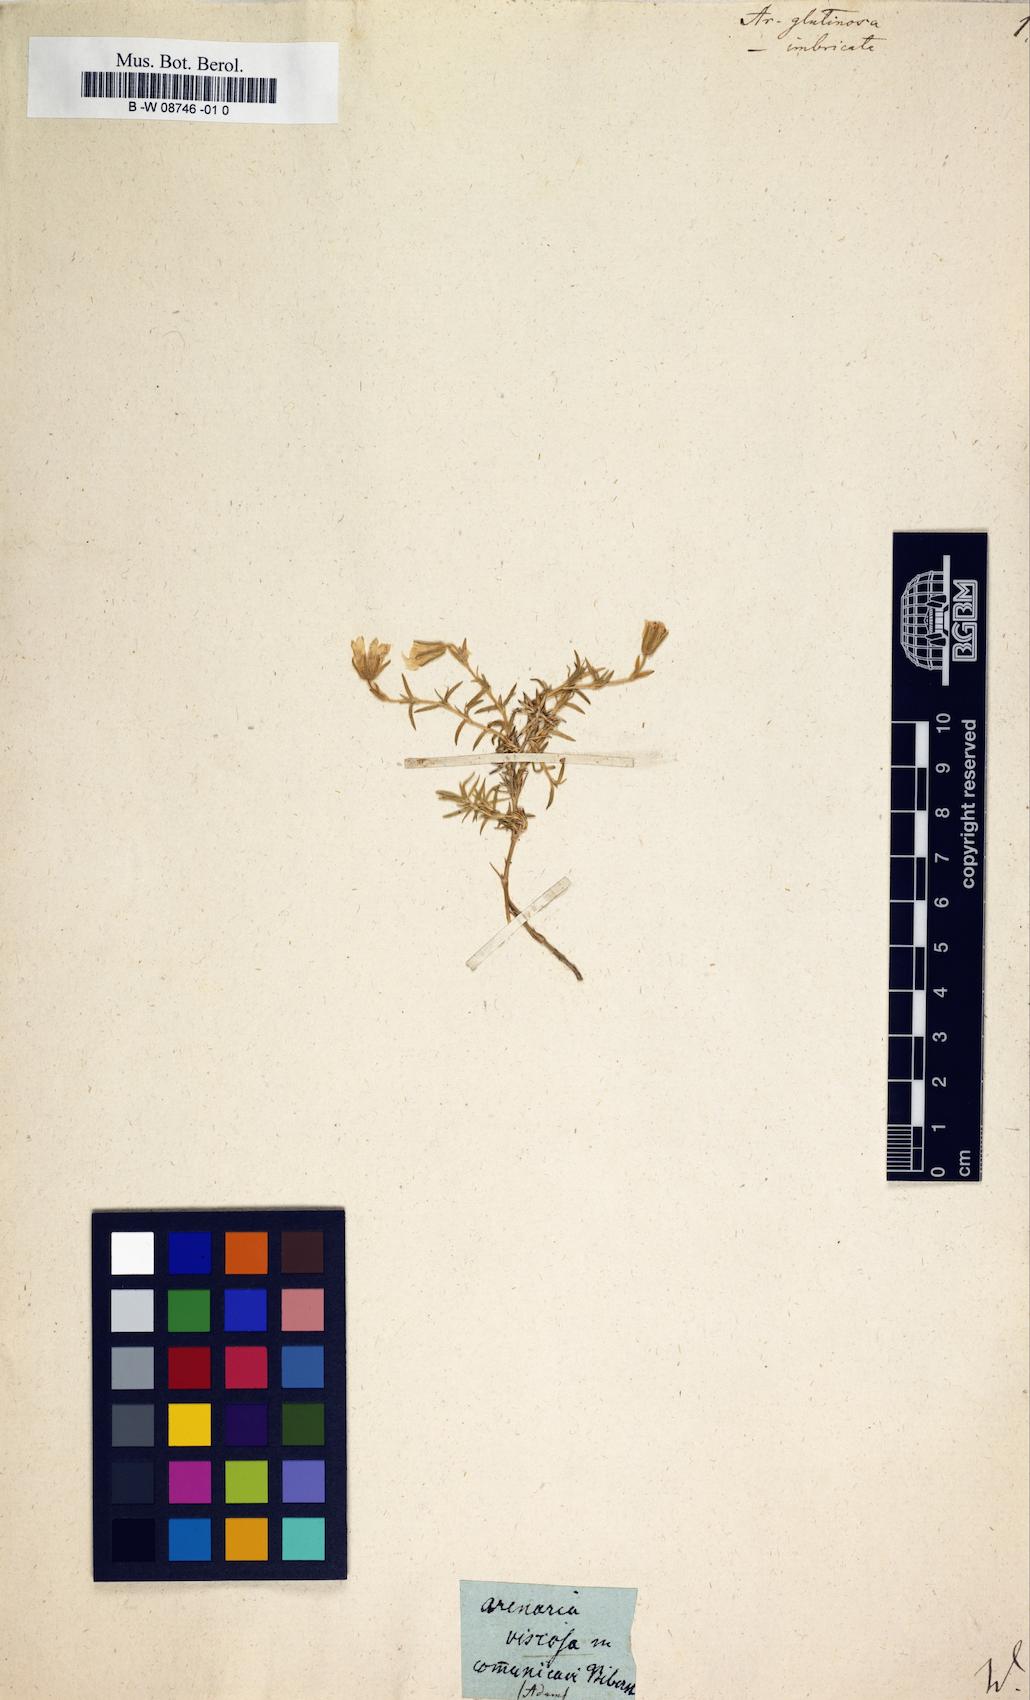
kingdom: Plantae
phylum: Tracheophyta
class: Magnoliopsida
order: Caryophyllales
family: Caryophyllaceae
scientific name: Caryophyllaceae
